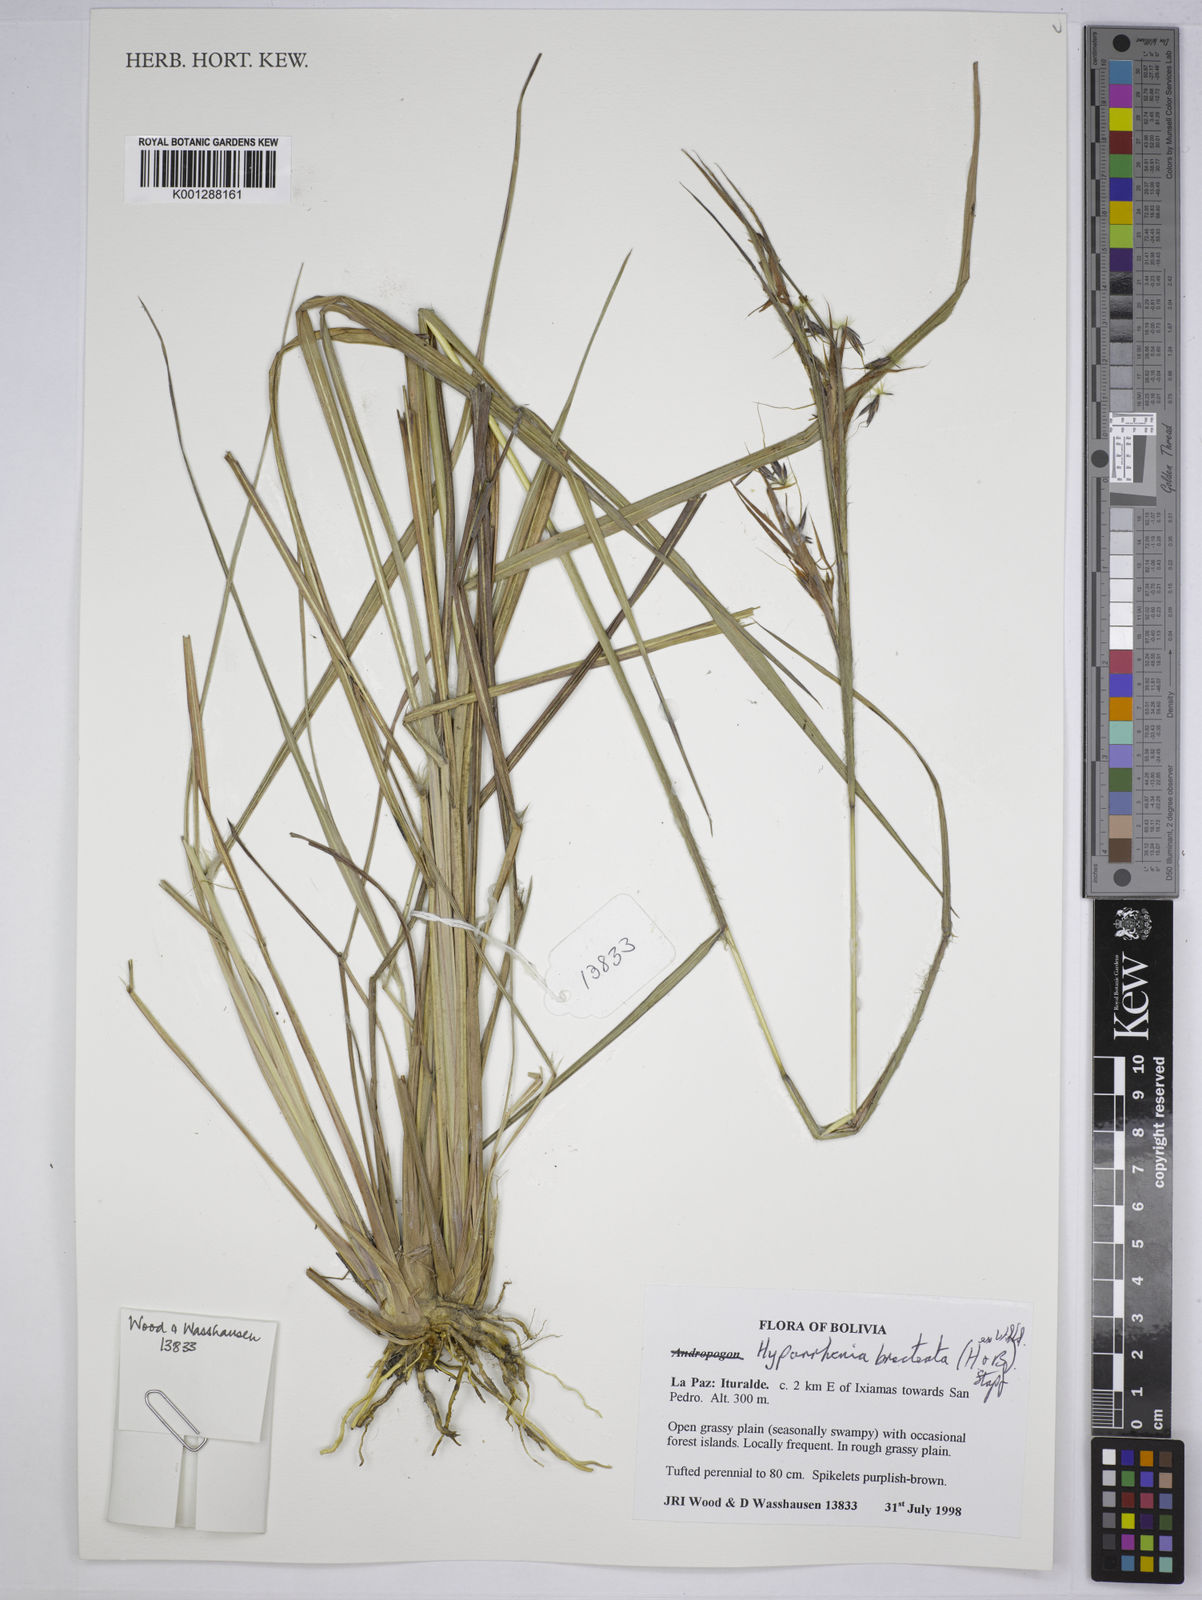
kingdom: Plantae
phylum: Tracheophyta
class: Liliopsida
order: Poales
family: Poaceae
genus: Hyparrhenia
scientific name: Hyparrhenia bracteata
